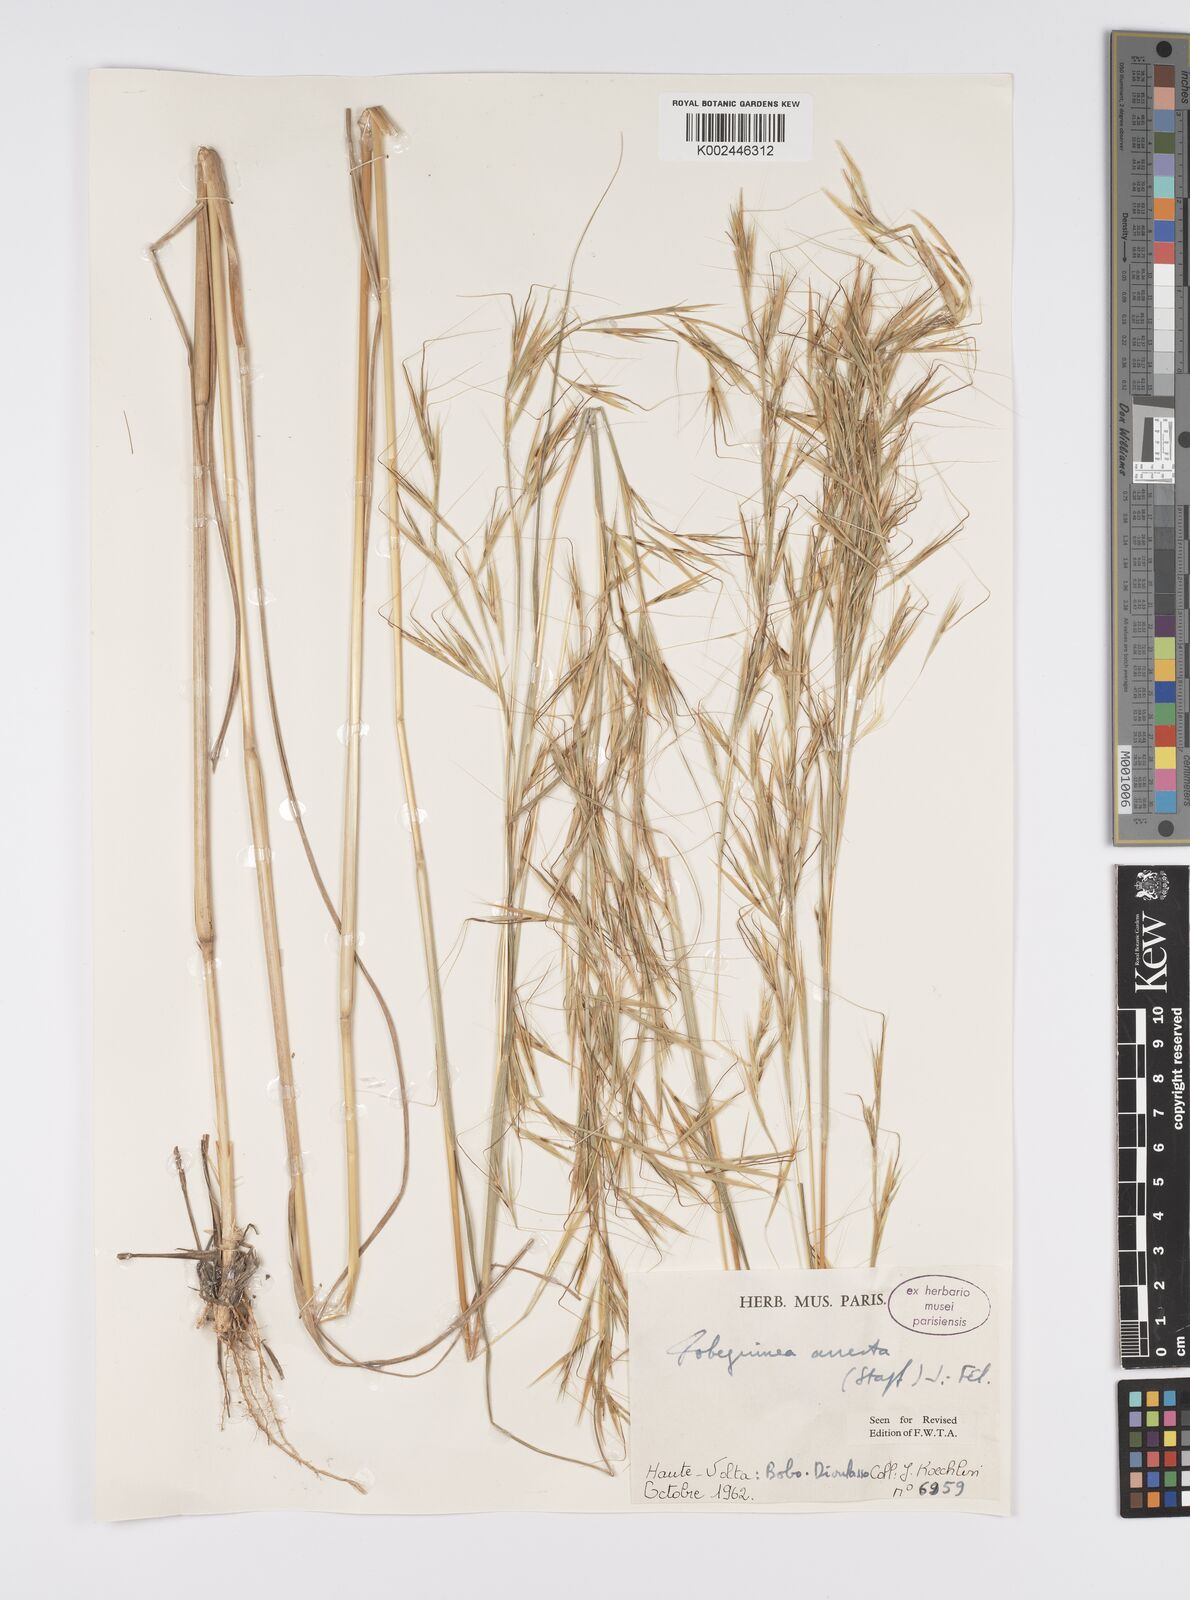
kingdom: Plantae
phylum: Tracheophyta
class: Liliopsida
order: Poales
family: Poaceae
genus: Anadelphia
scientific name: Anadelphia afzeliana
